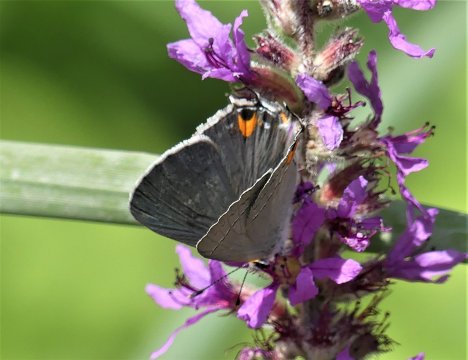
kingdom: Animalia
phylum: Arthropoda
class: Insecta
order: Lepidoptera
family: Lycaenidae
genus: Strymon
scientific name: Strymon melinus
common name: Gray Hairstreak
